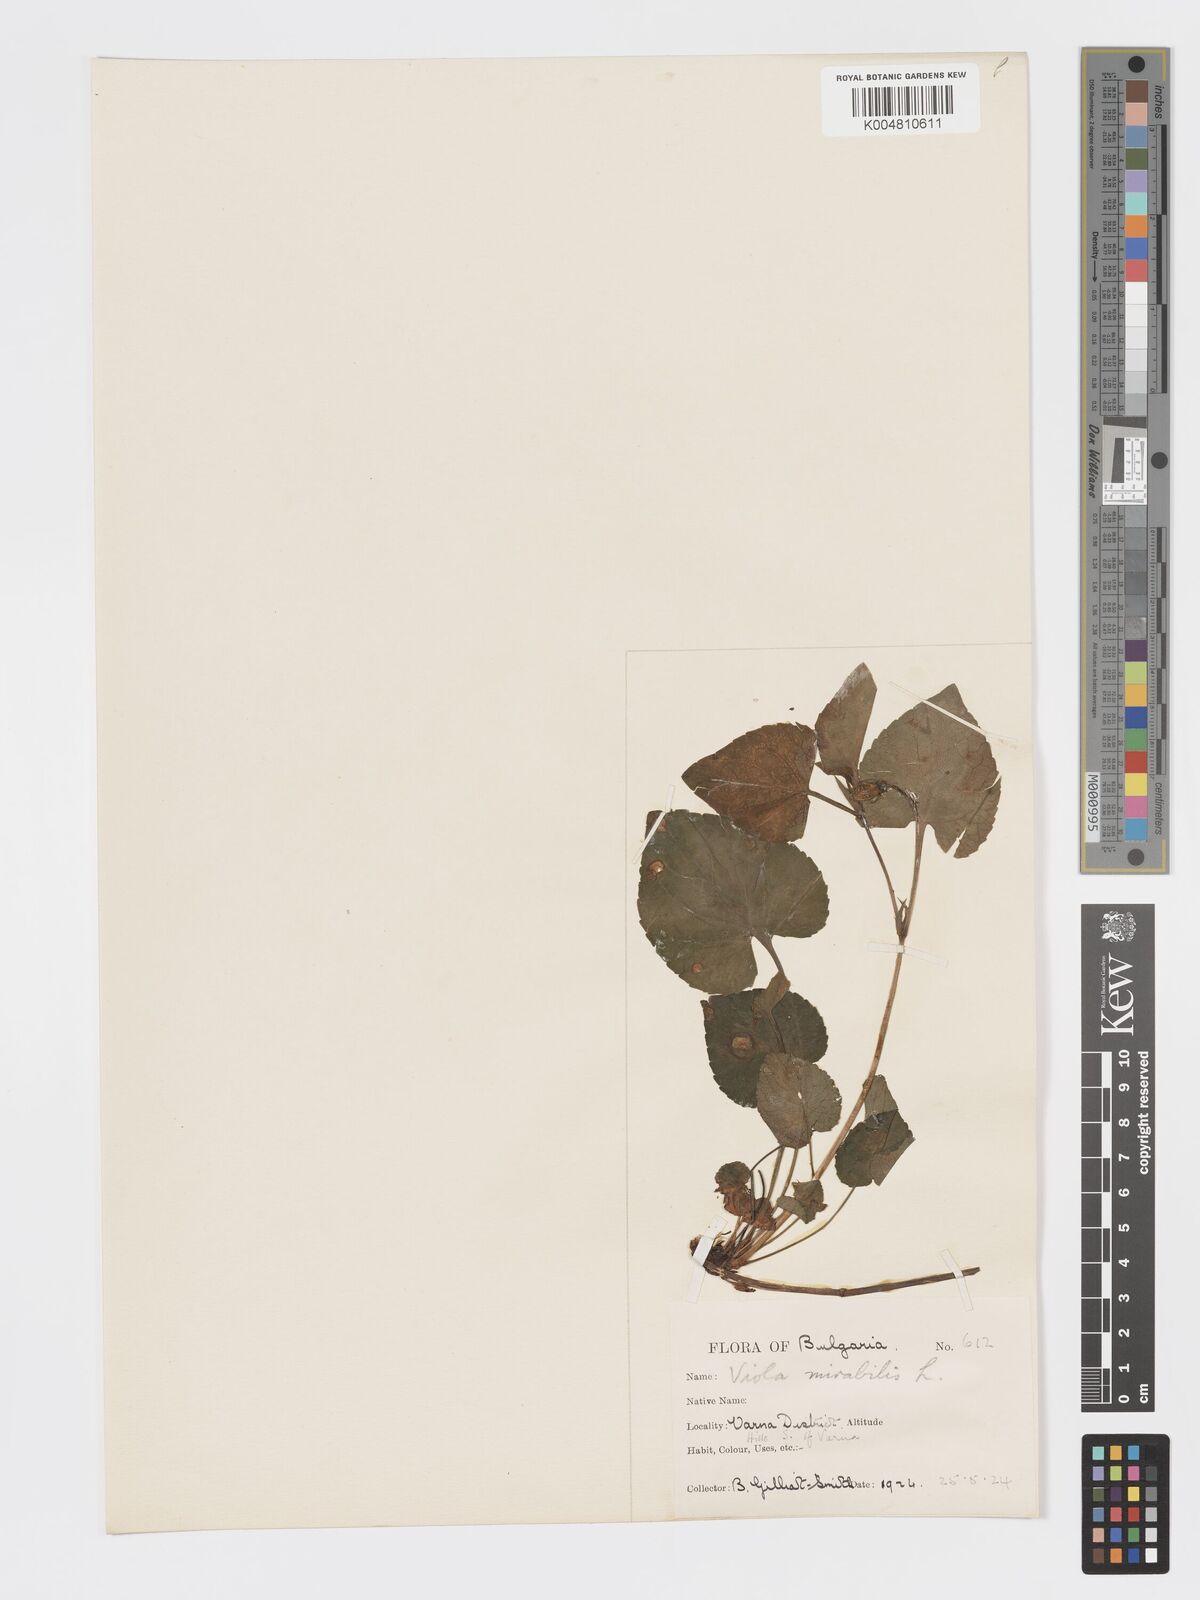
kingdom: Plantae
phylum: Tracheophyta
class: Magnoliopsida
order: Malpighiales
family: Violaceae
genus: Viola
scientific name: Viola mirabilis
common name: Wonder violet
